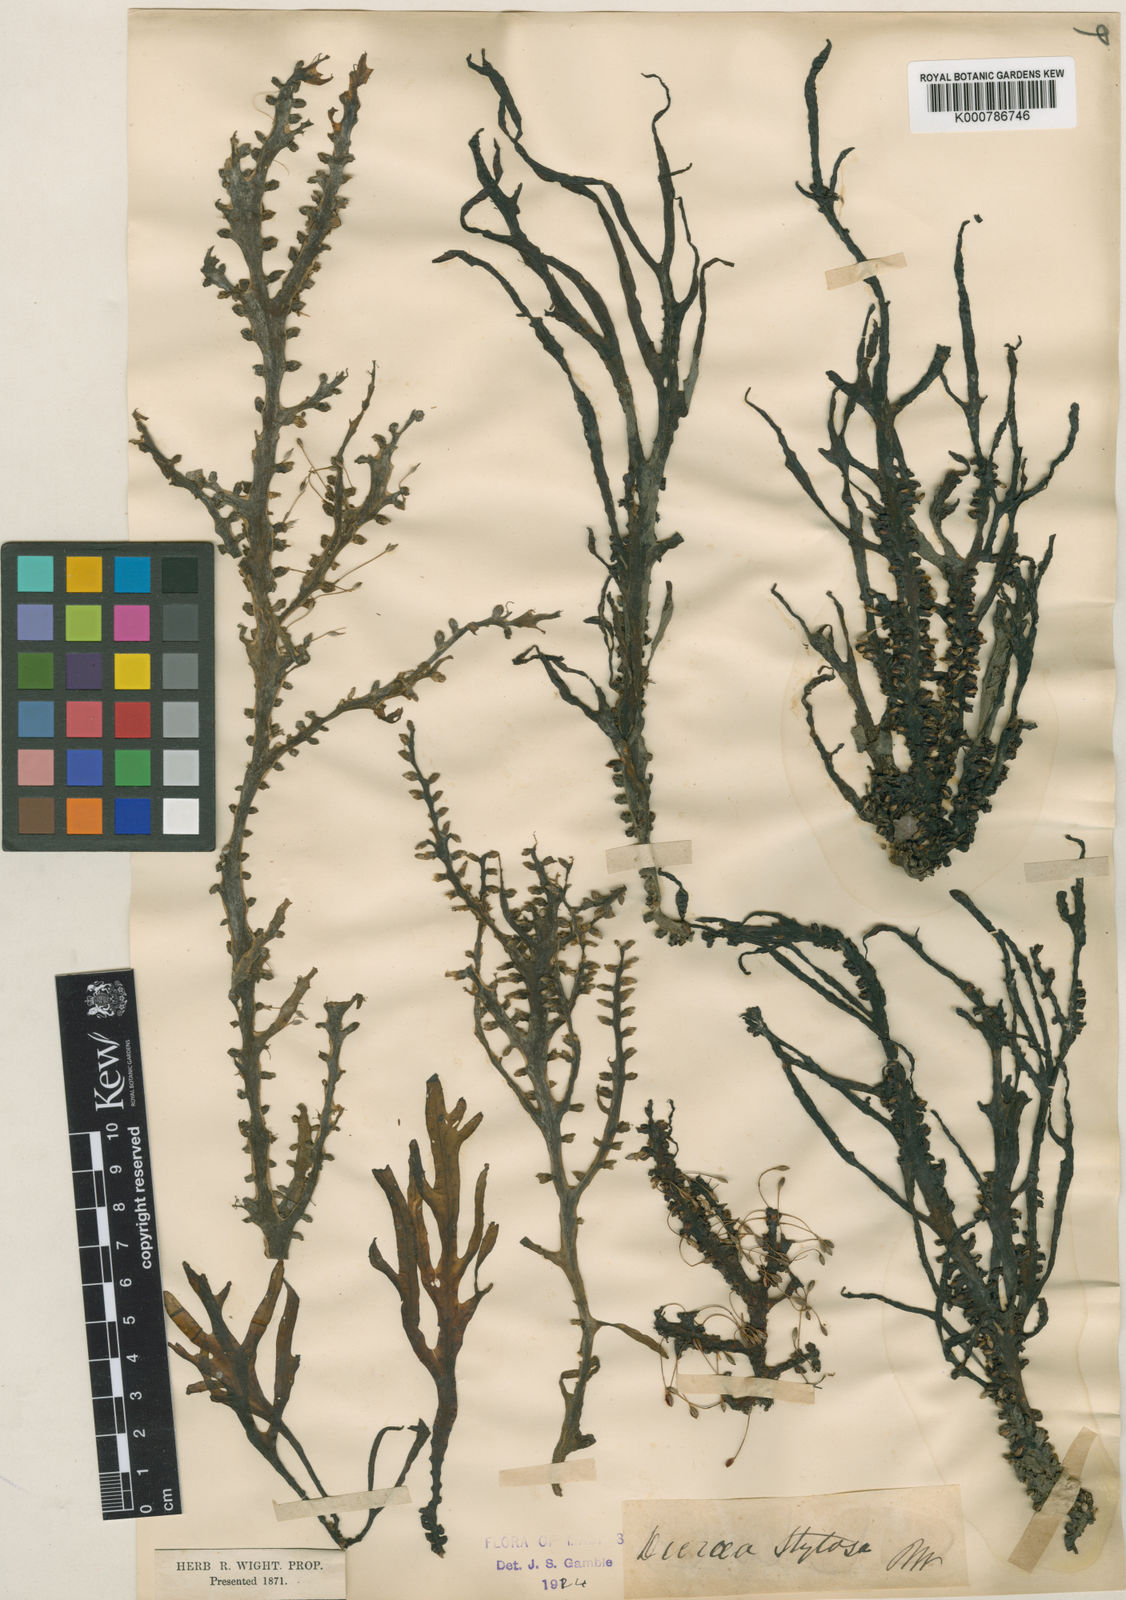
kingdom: Plantae
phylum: Tracheophyta
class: Magnoliopsida
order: Malpighiales
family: Podostemaceae
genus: Polypleurum
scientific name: Polypleurum wallichii
